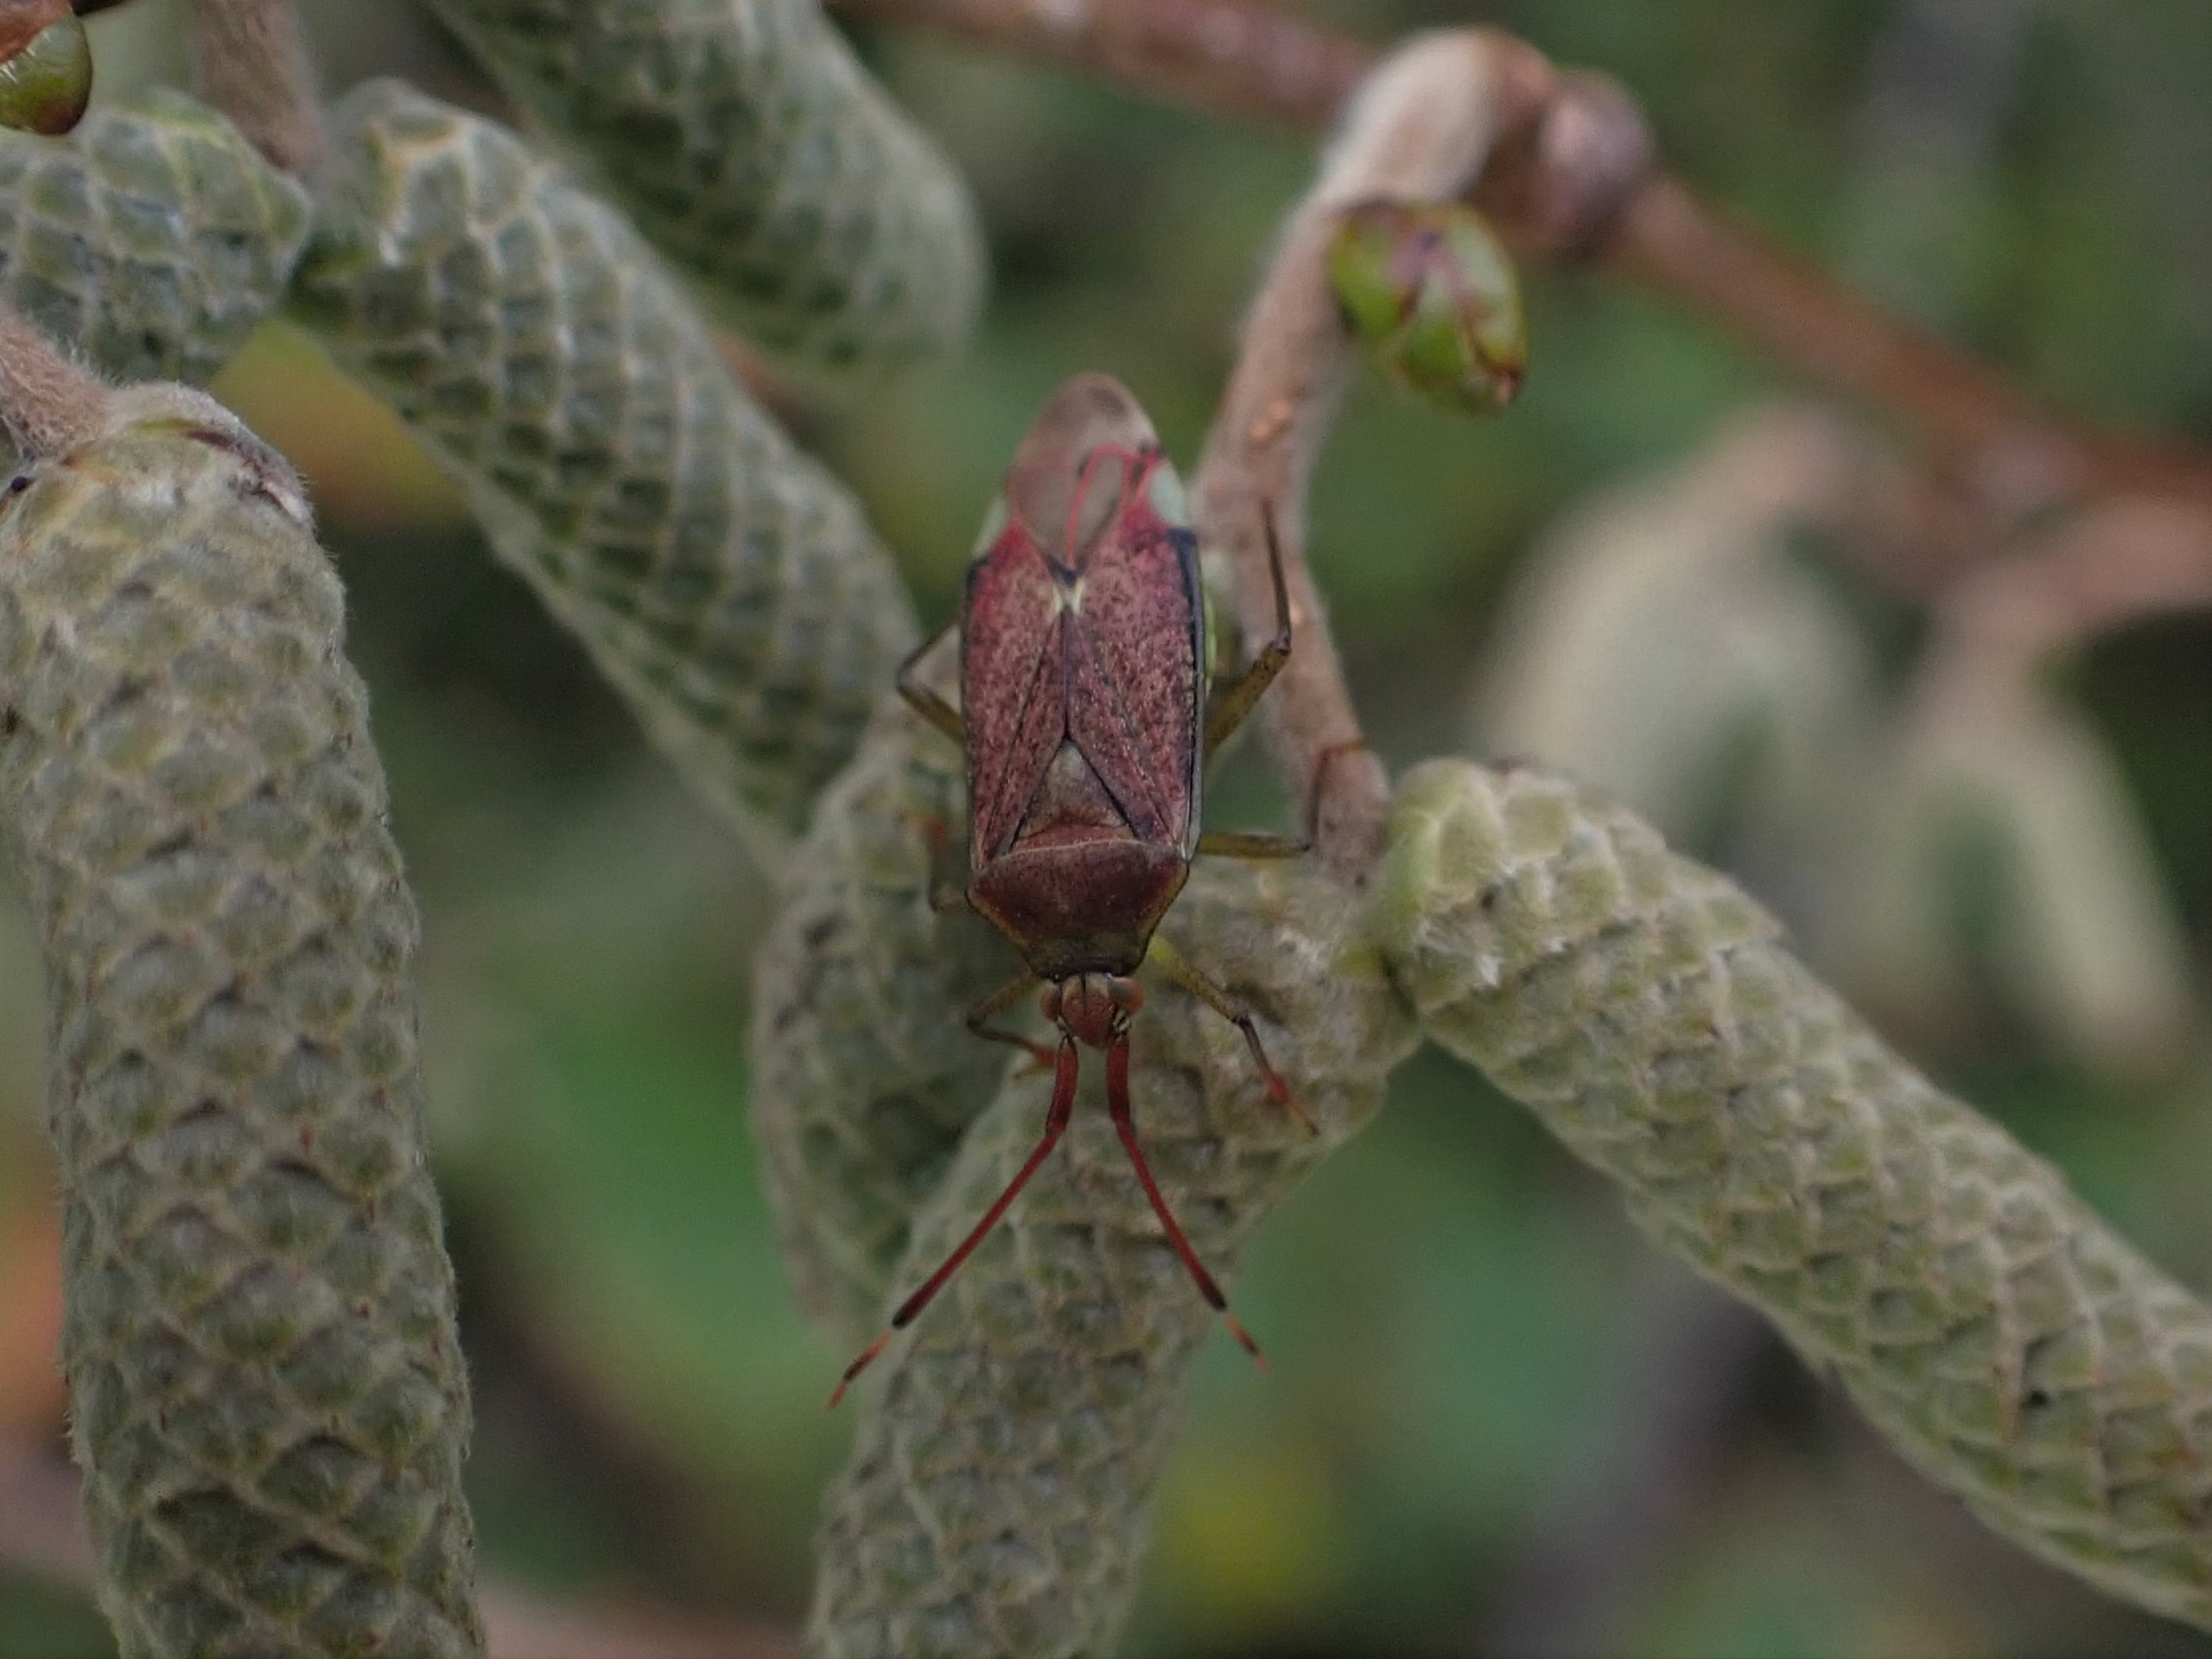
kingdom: Animalia
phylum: Arthropoda
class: Insecta
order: Hemiptera
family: Miridae
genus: Pantilius
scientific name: Pantilius tunicatus
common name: Stor hasseltæge
